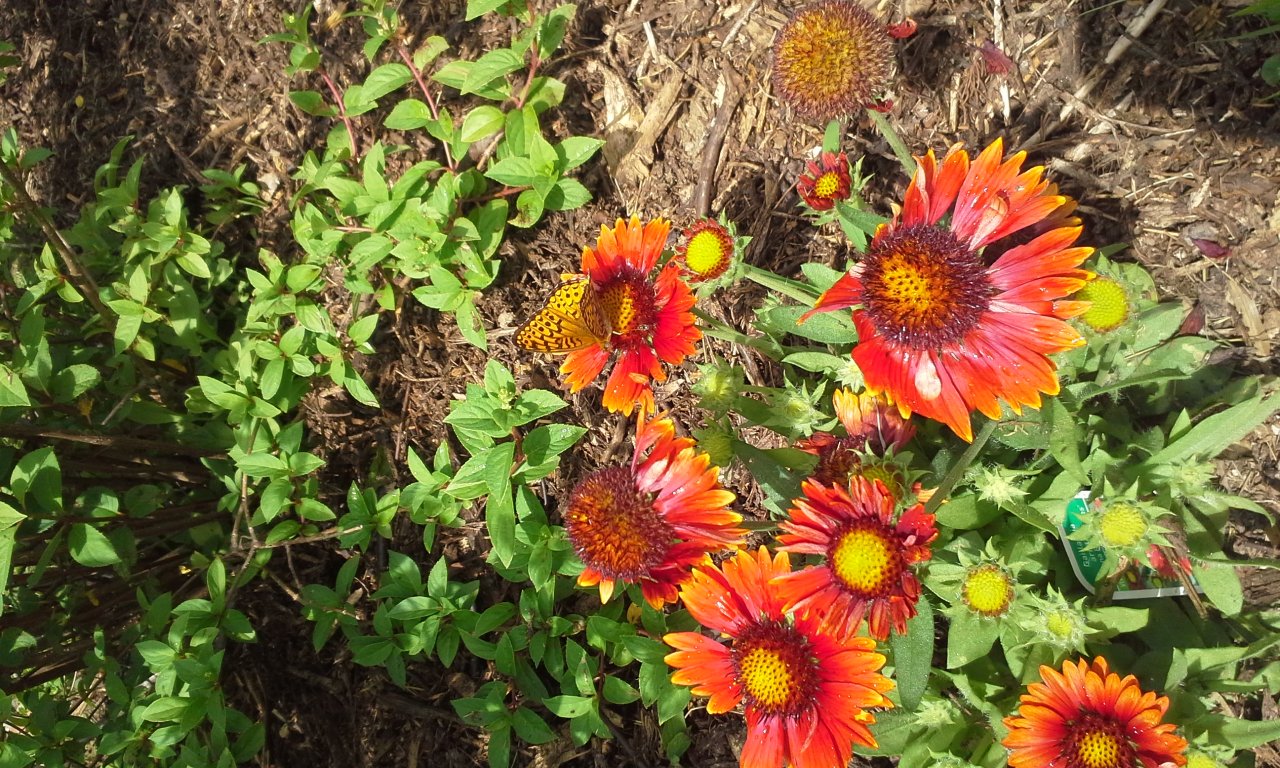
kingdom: Animalia
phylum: Arthropoda
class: Insecta
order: Lepidoptera
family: Nymphalidae
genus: Speyeria
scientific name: Speyeria atlantis
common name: Atlantis Fritillary
